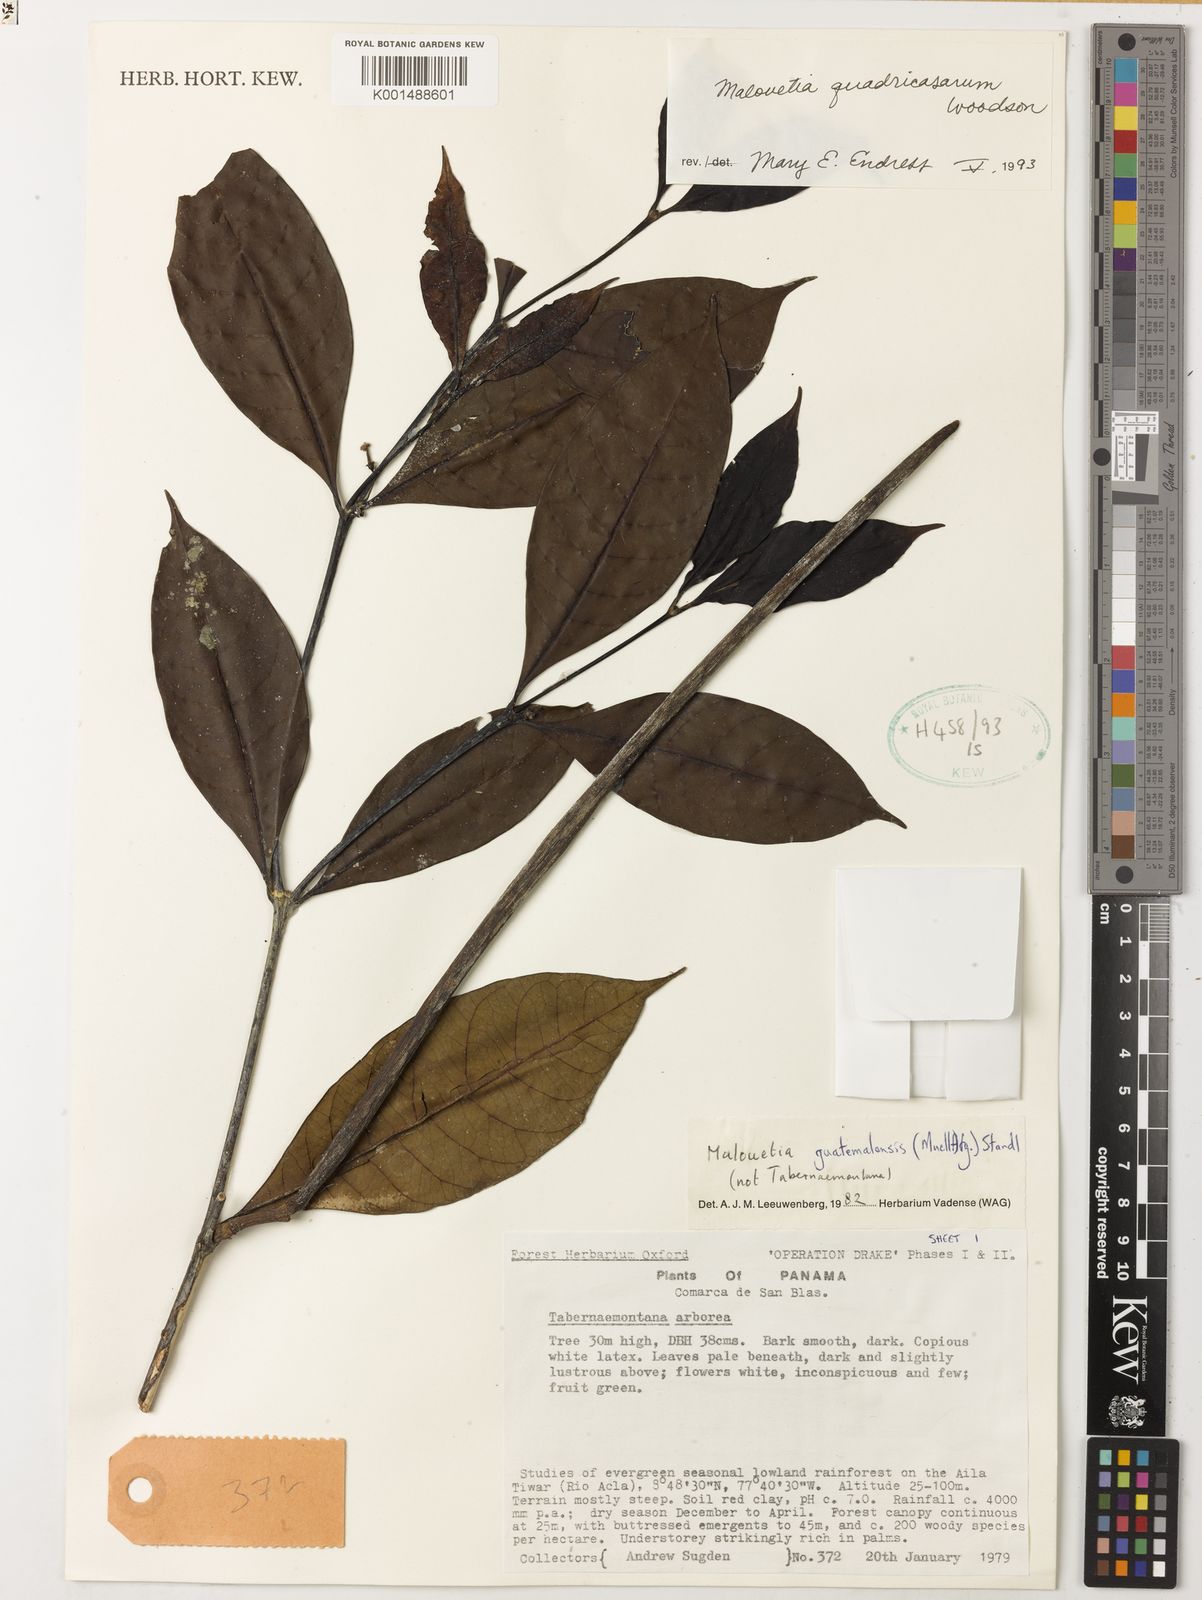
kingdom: Plantae
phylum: Tracheophyta
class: Magnoliopsida
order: Gentianales
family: Apocynaceae
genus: Malouetia
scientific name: Malouetia guatemalensis
